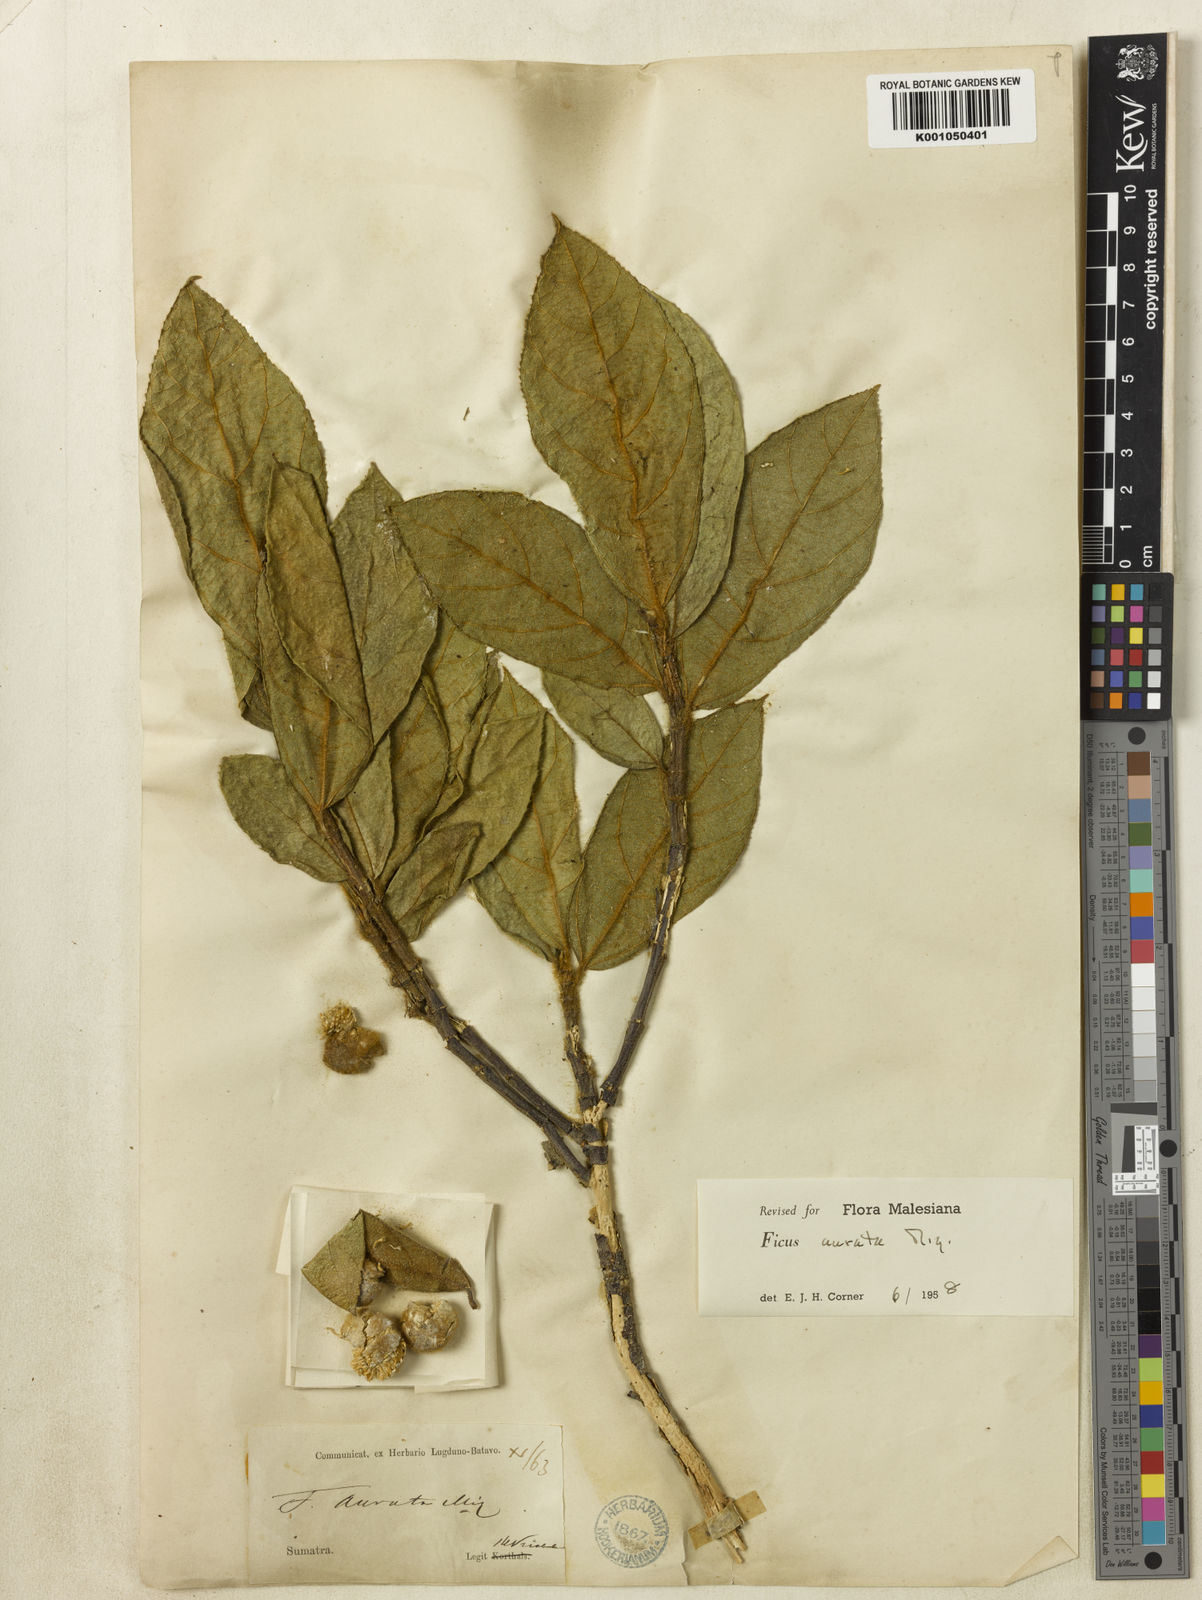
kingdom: Plantae
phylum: Tracheophyta
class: Magnoliopsida
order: Rosales
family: Moraceae
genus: Ficus
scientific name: Ficus aurata
